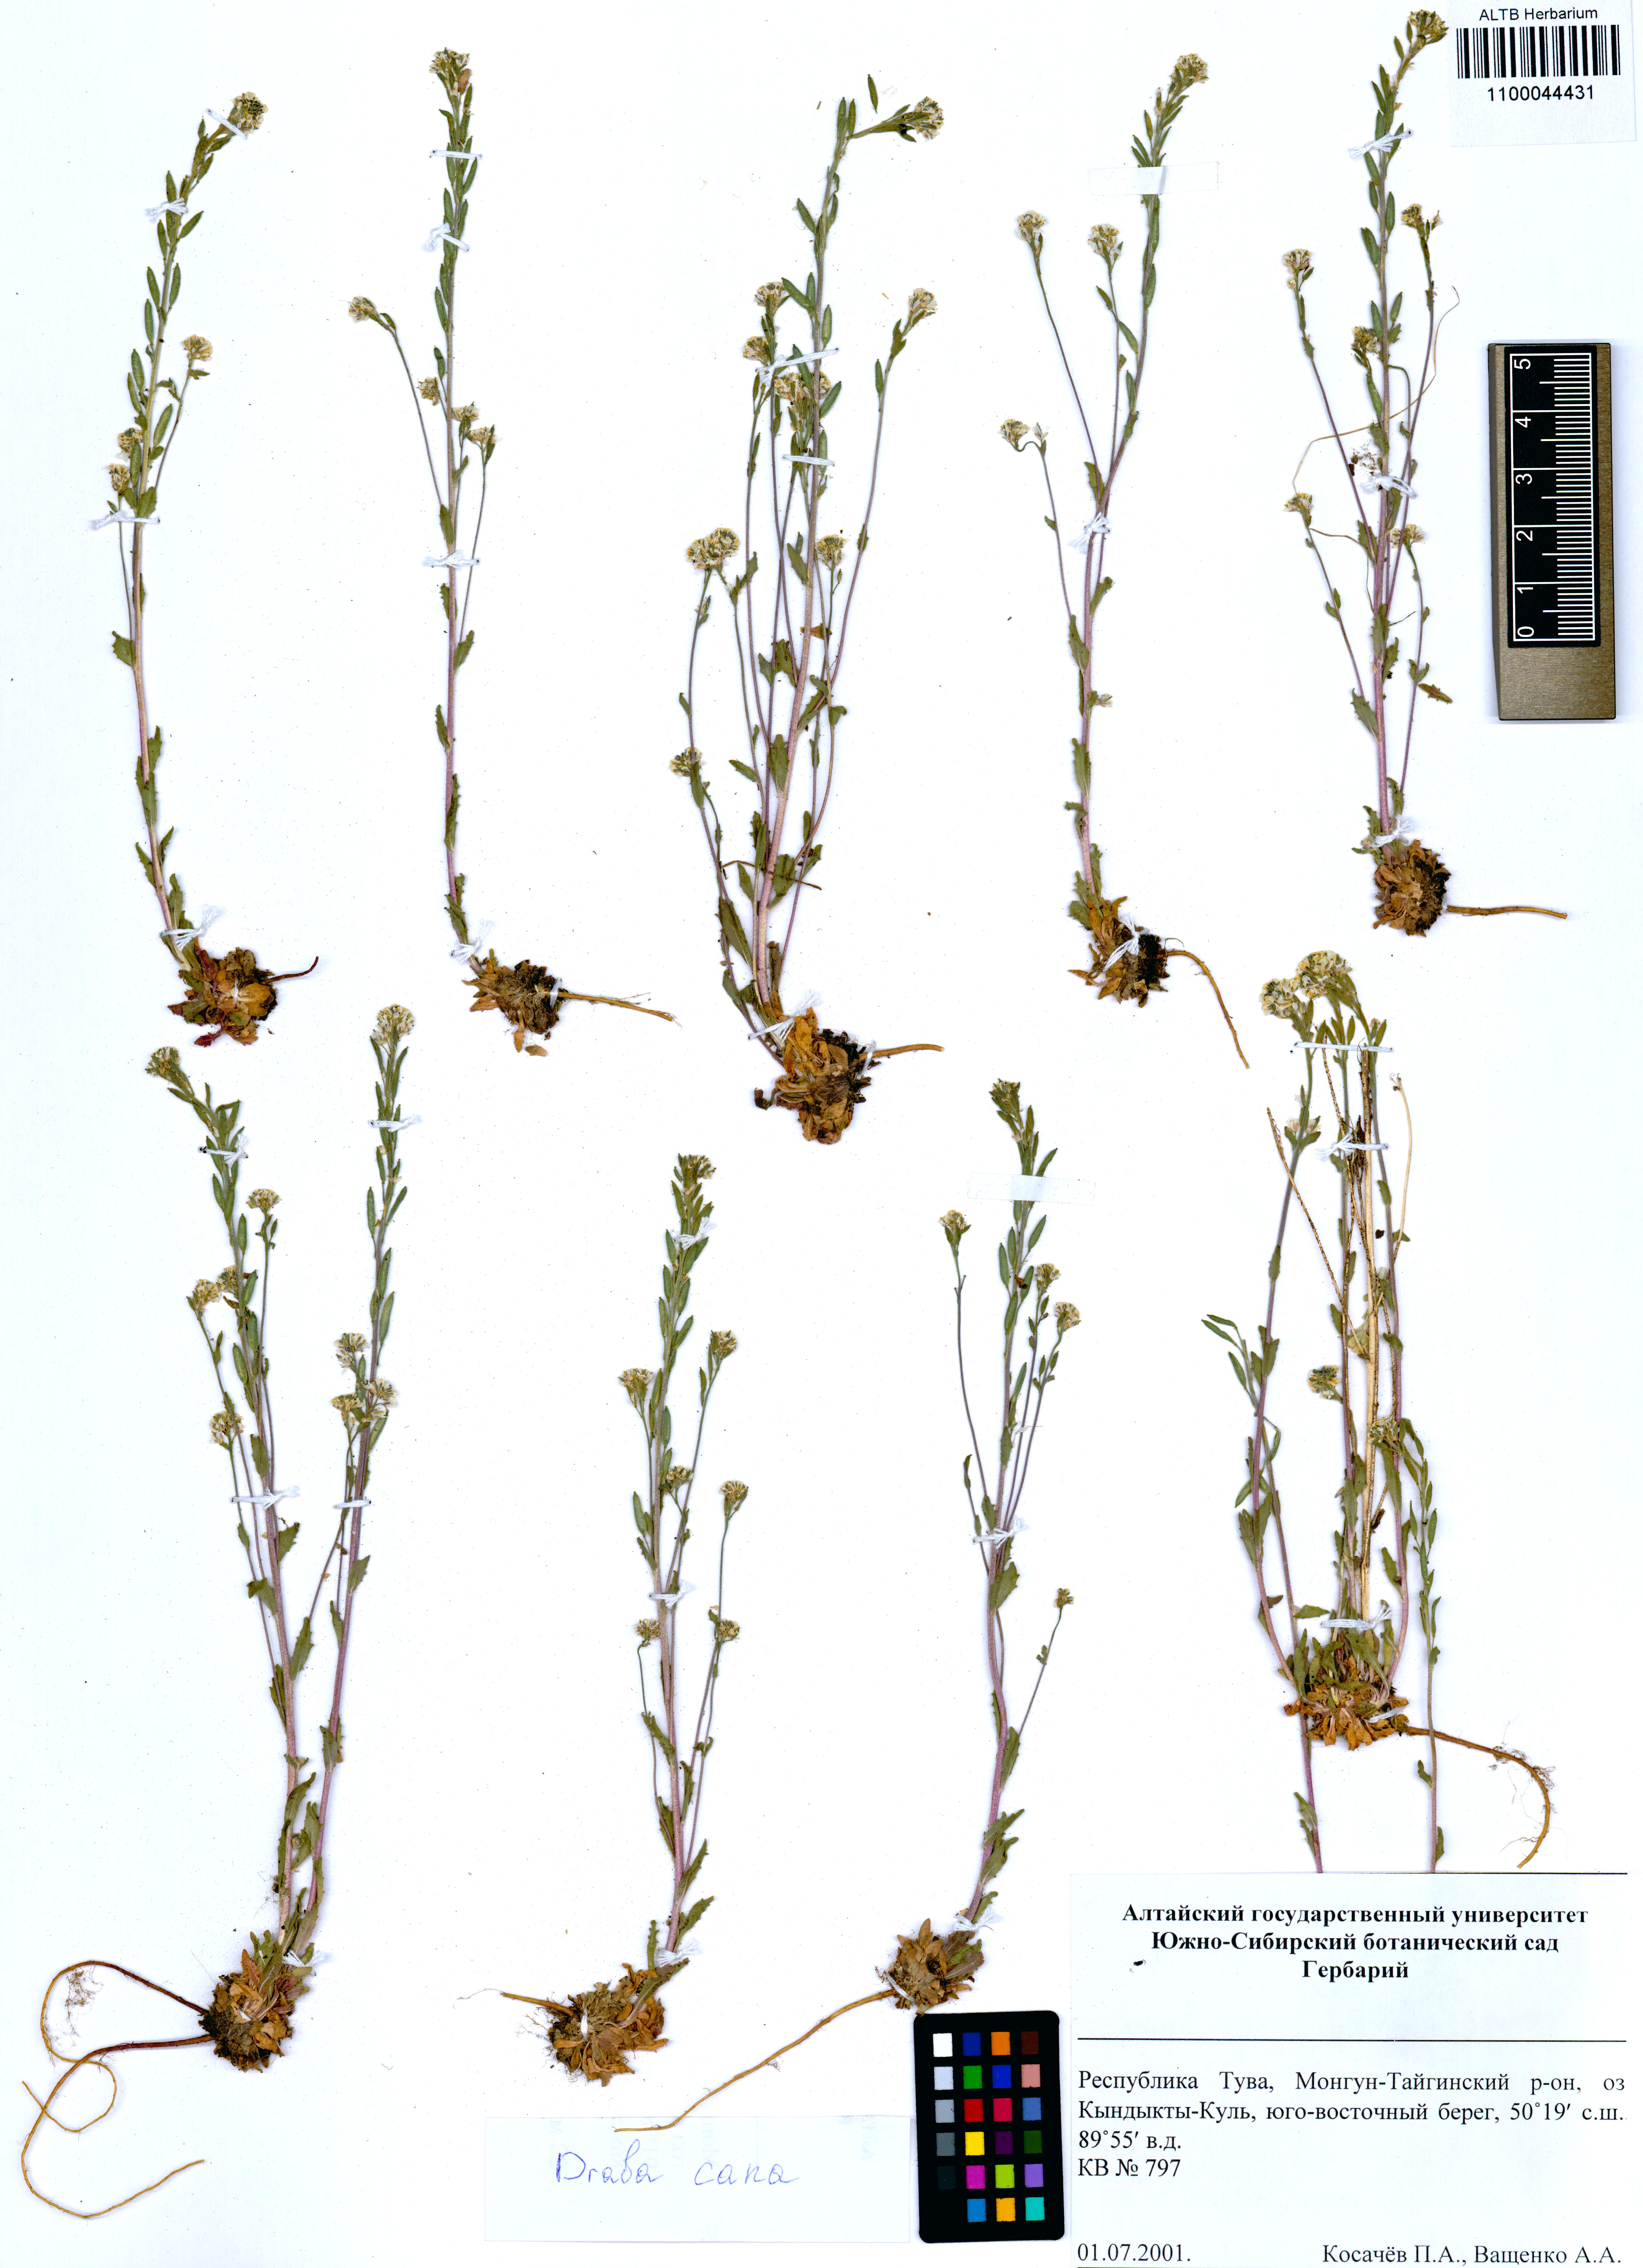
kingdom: Plantae
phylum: Tracheophyta
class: Magnoliopsida
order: Brassicales
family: Brassicaceae
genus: Draba
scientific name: Draba cana
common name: Hoary draba
